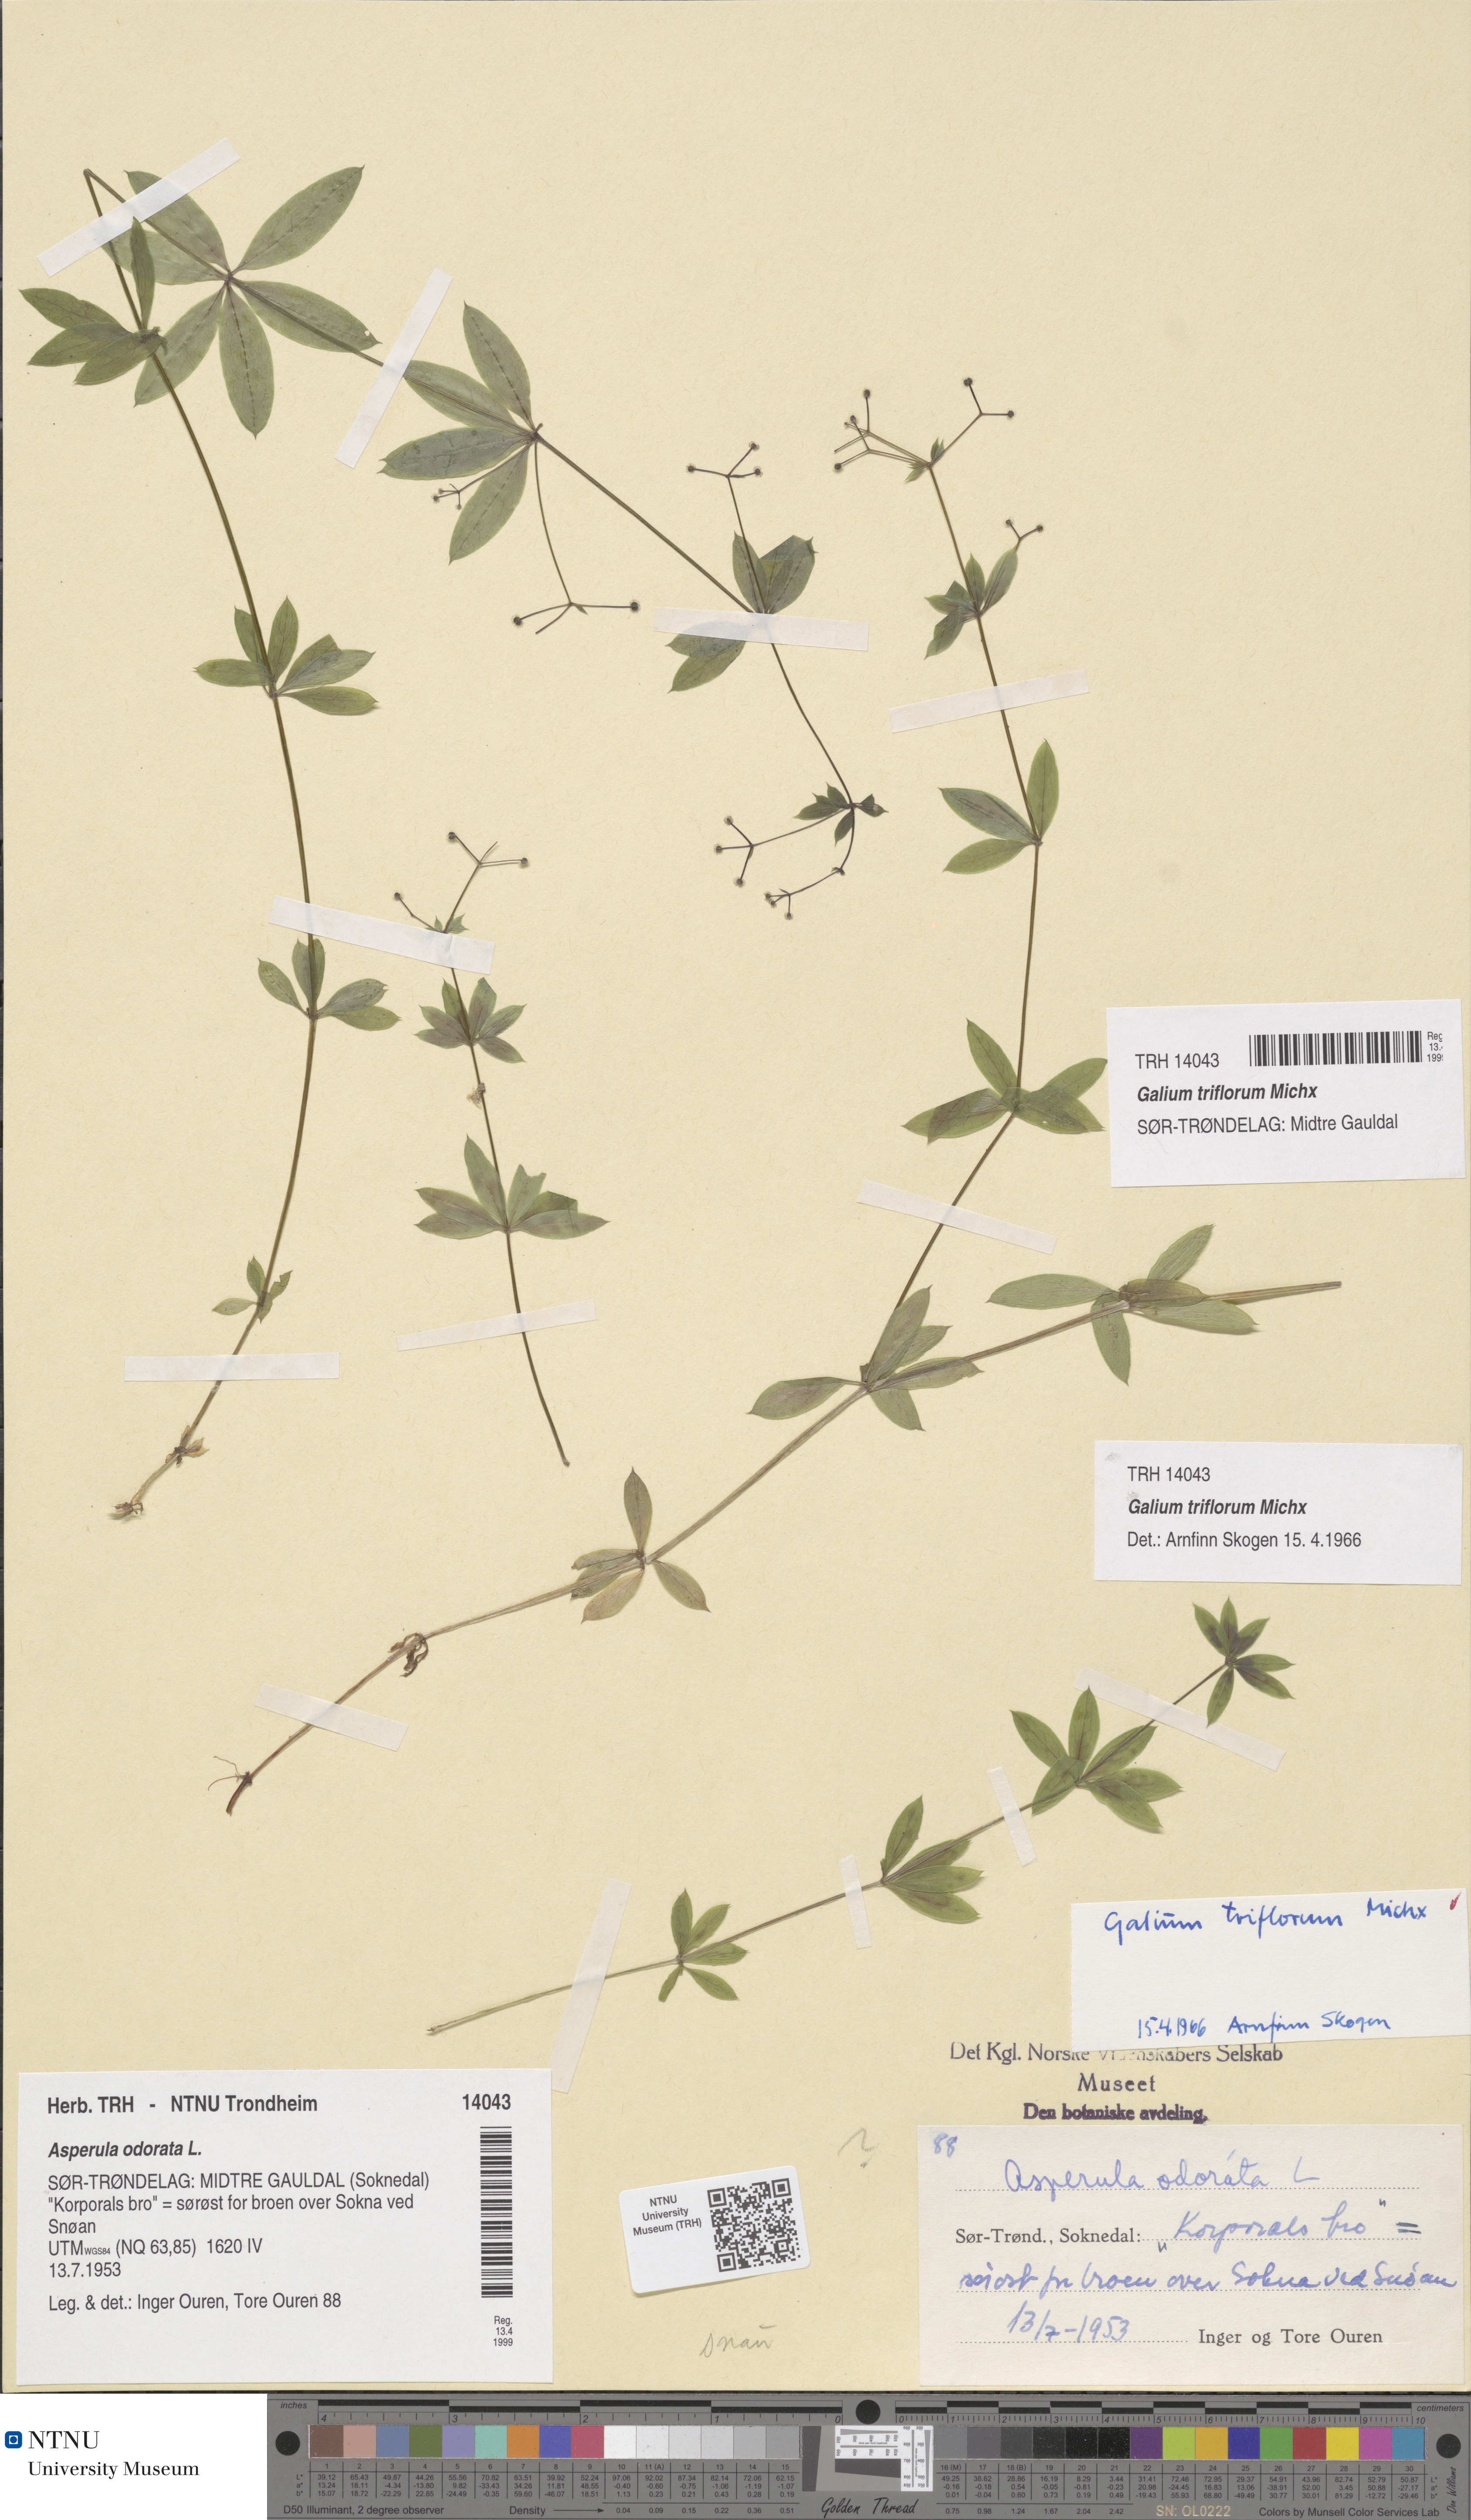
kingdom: Plantae
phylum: Tracheophyta
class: Magnoliopsida
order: Gentianales
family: Rubiaceae
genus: Galium
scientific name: Galium triflorum
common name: Fragrant bedstraw
